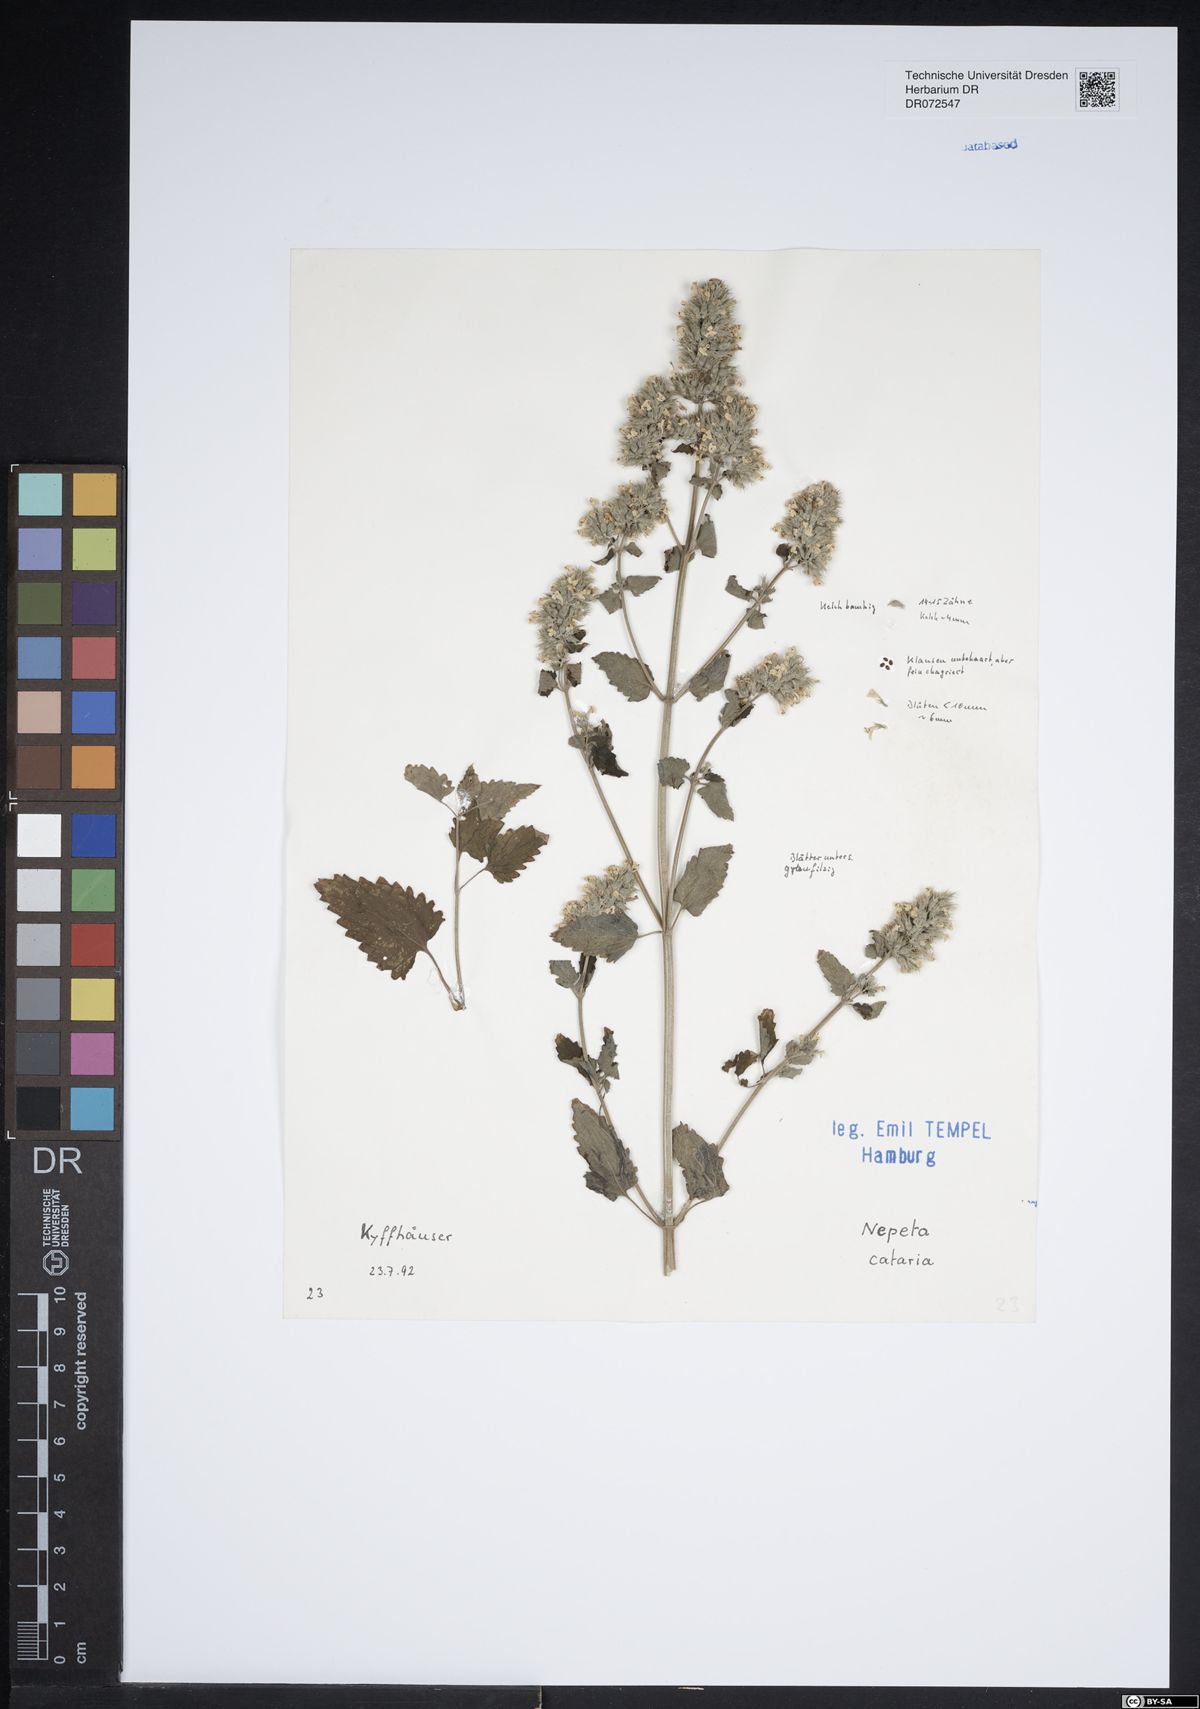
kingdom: Plantae
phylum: Tracheophyta
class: Magnoliopsida
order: Lamiales
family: Lamiaceae
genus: Nepeta
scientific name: Nepeta cataria
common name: Catnip
